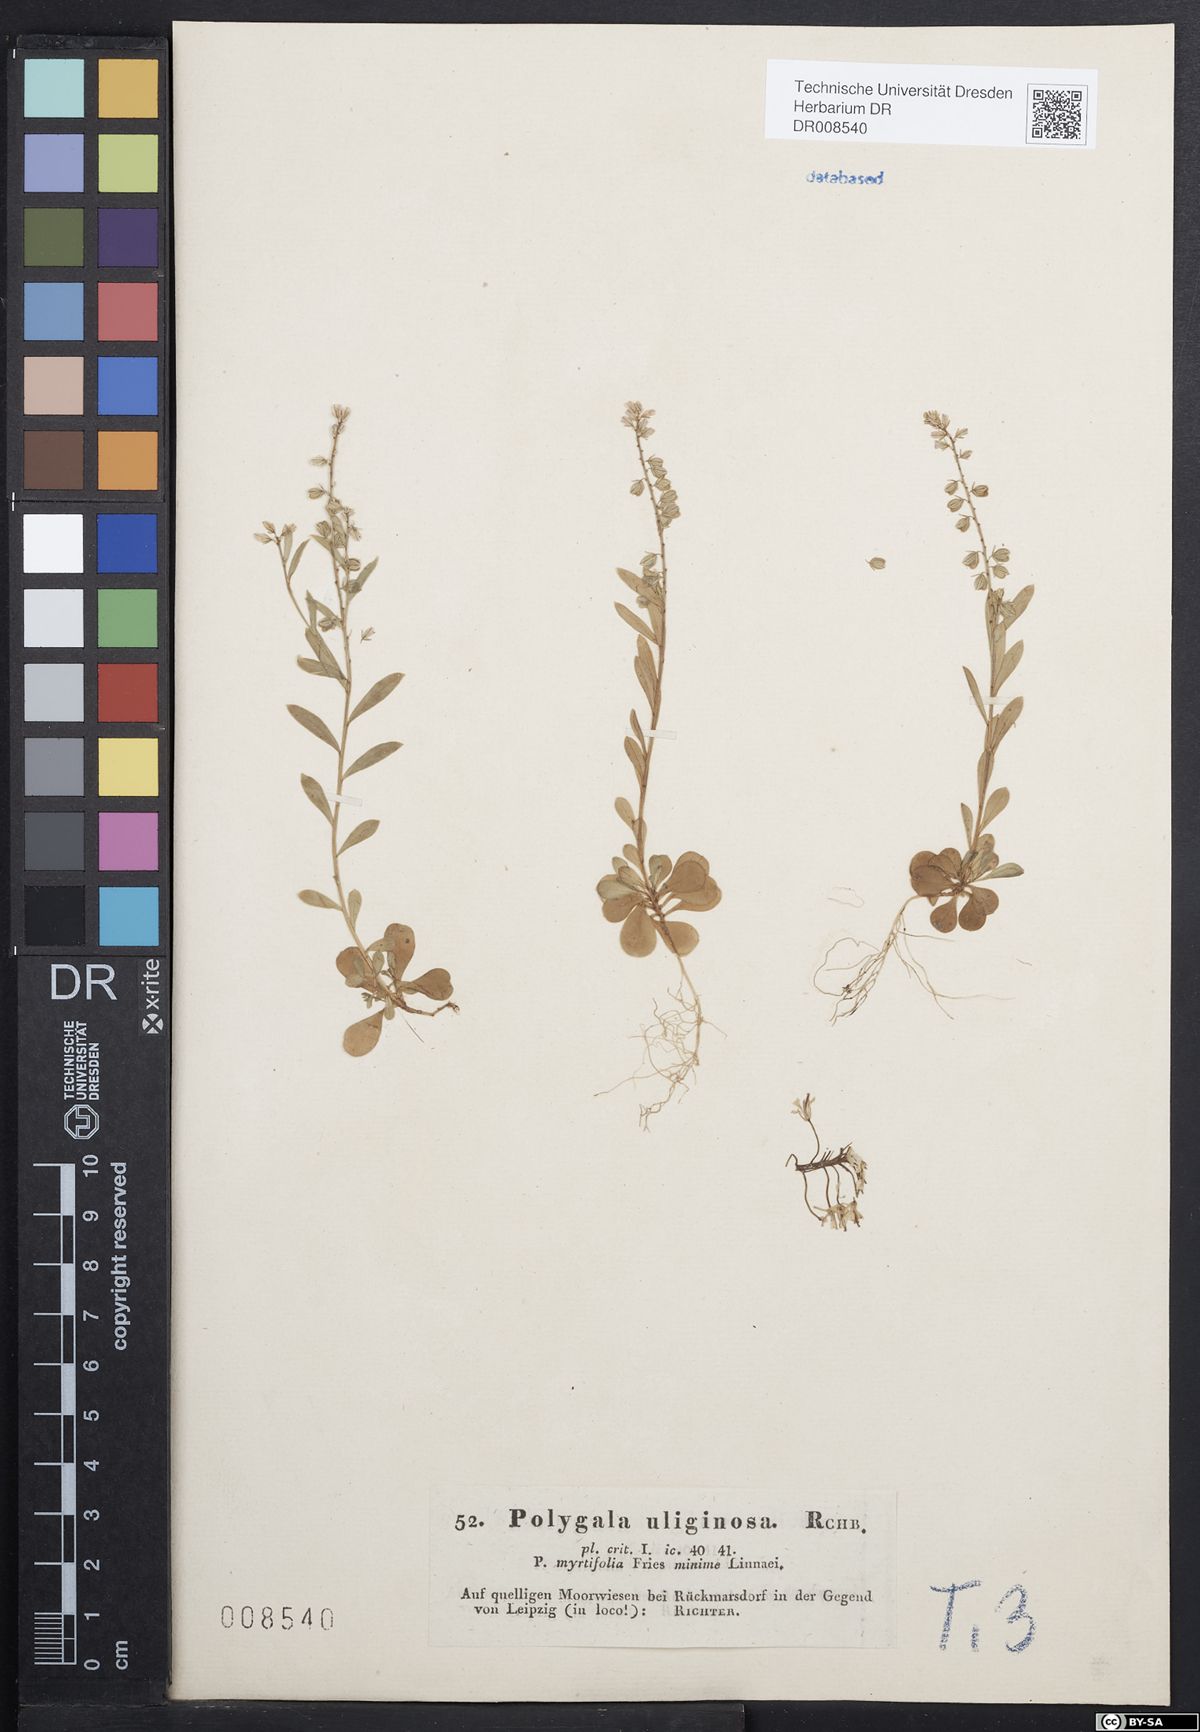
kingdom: Plantae
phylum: Tracheophyta
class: Magnoliopsida
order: Fabales
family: Polygalaceae
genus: Polygala
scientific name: Polygala amarella
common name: Dwarf milkwort
